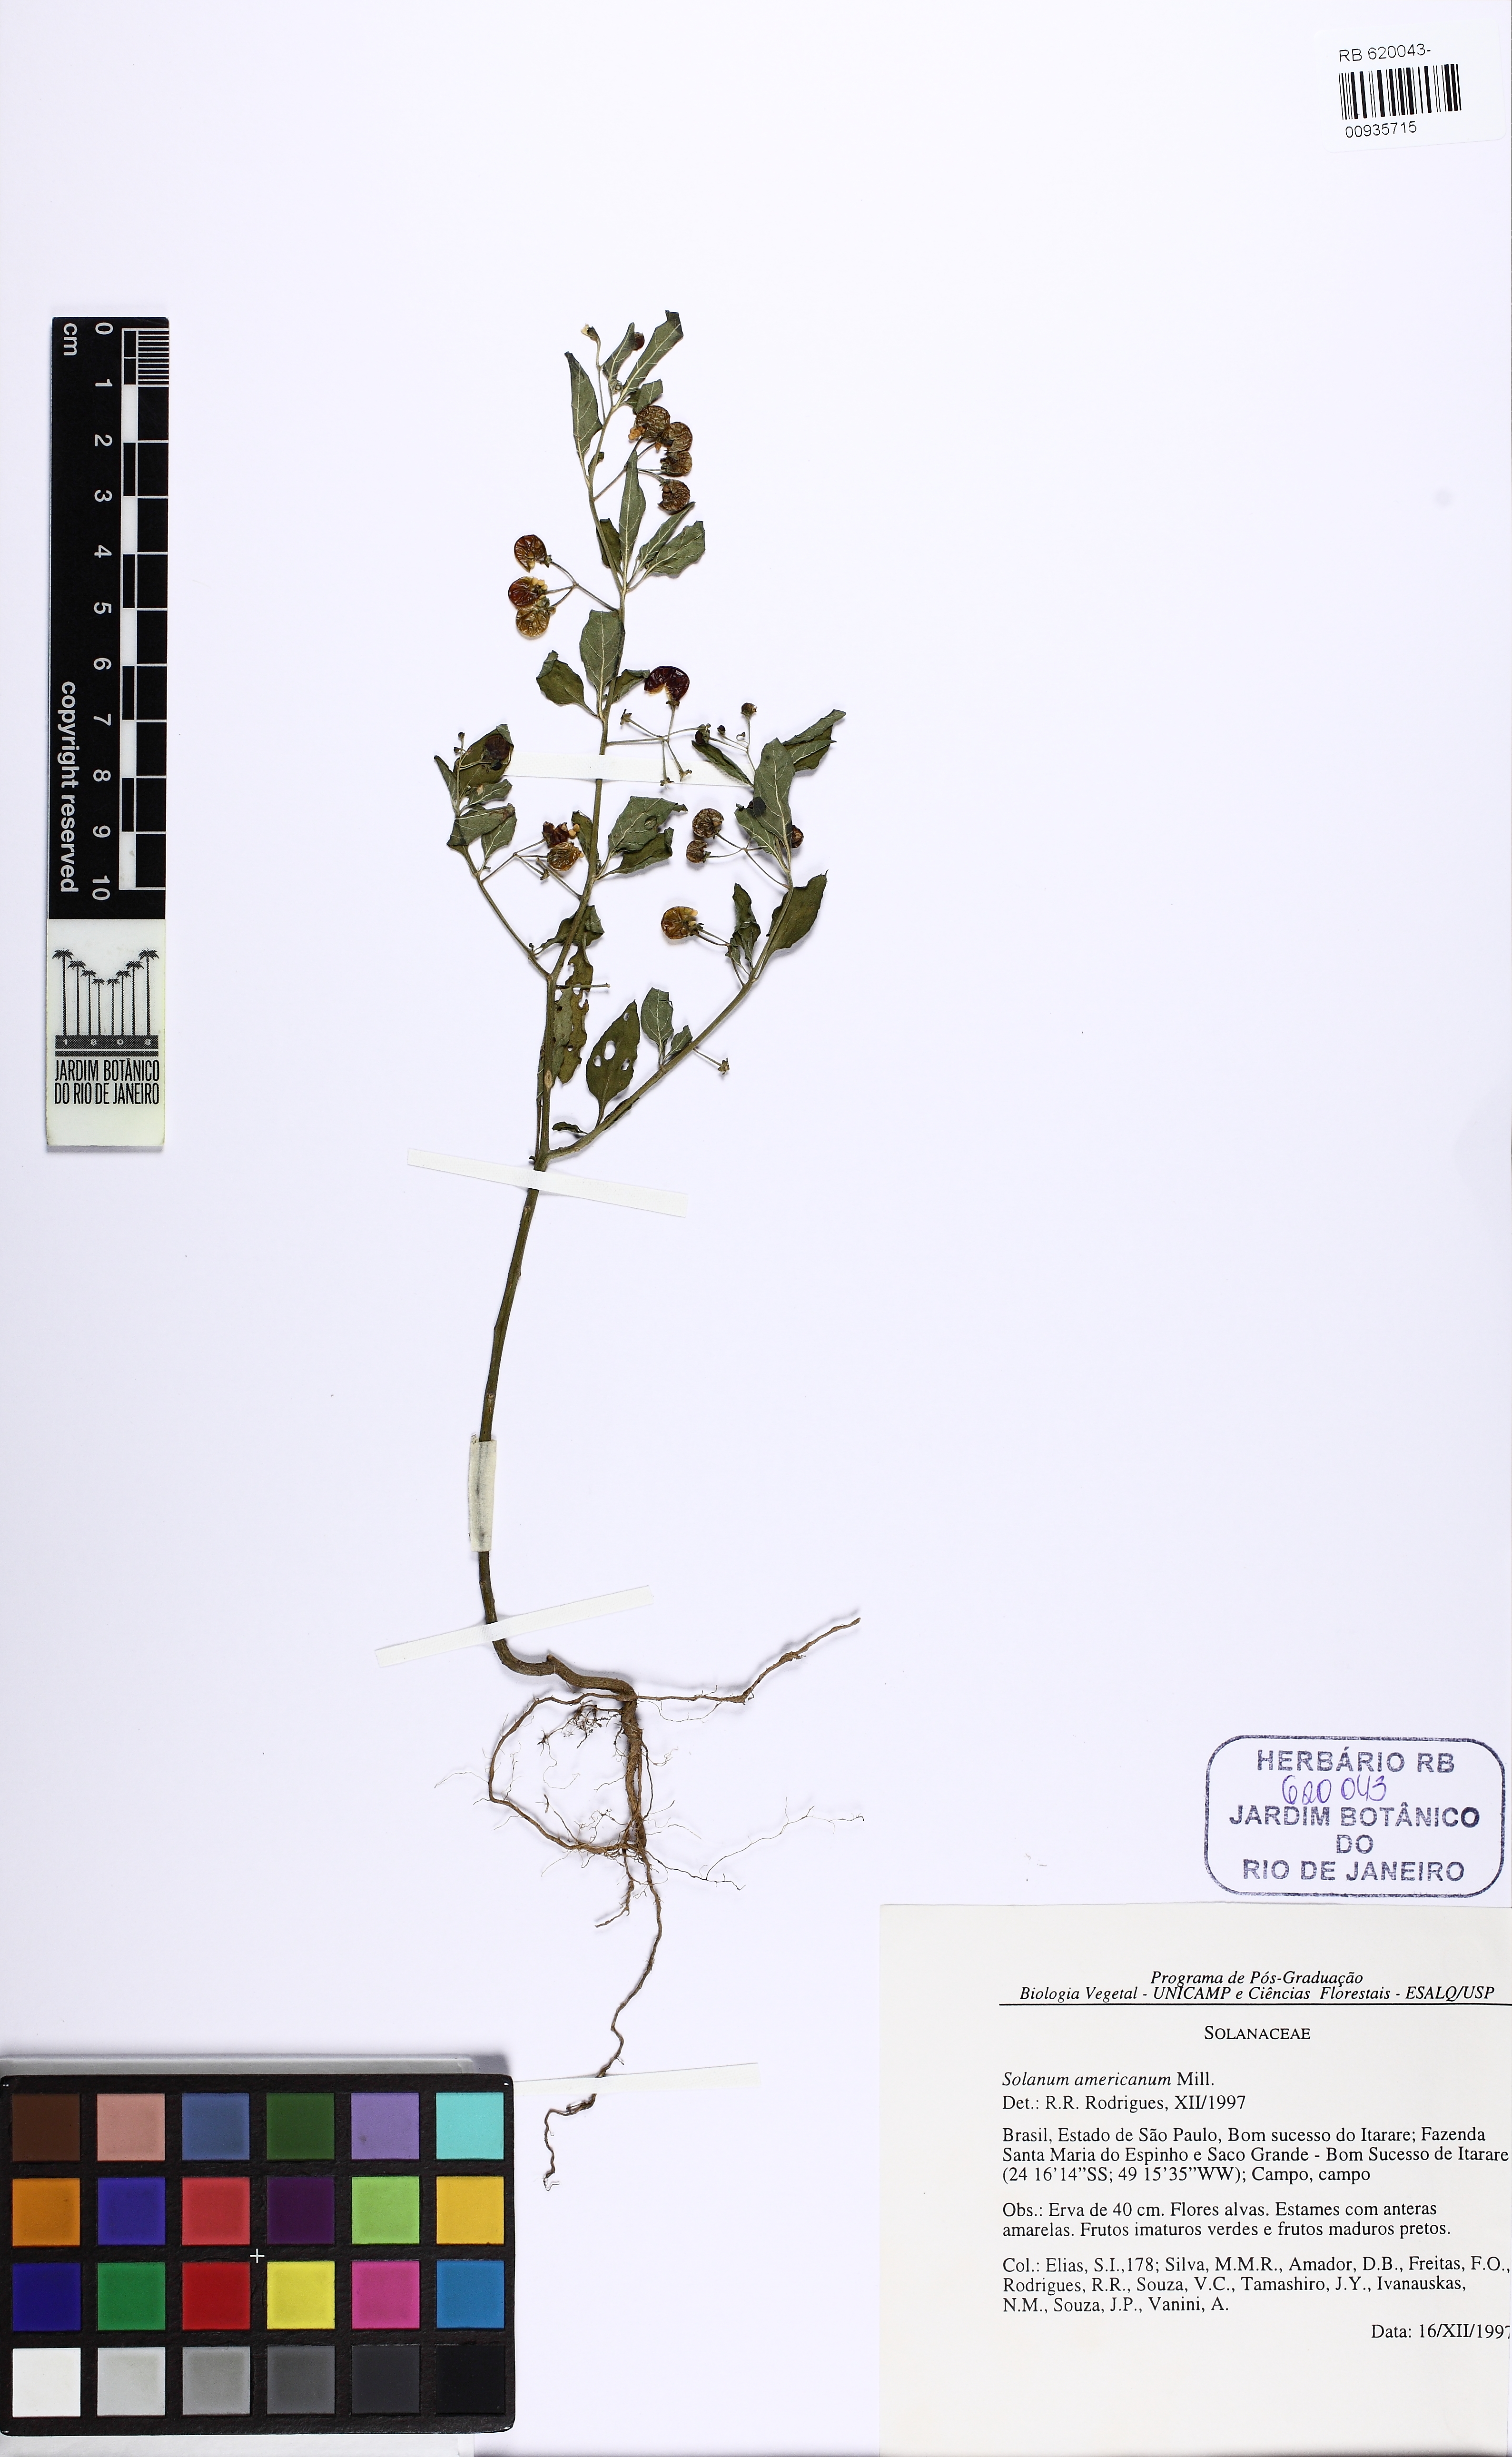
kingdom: Plantae
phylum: Tracheophyta
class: Magnoliopsida
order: Solanales
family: Solanaceae
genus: Solanum
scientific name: Solanum americanum
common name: American black nightshade
